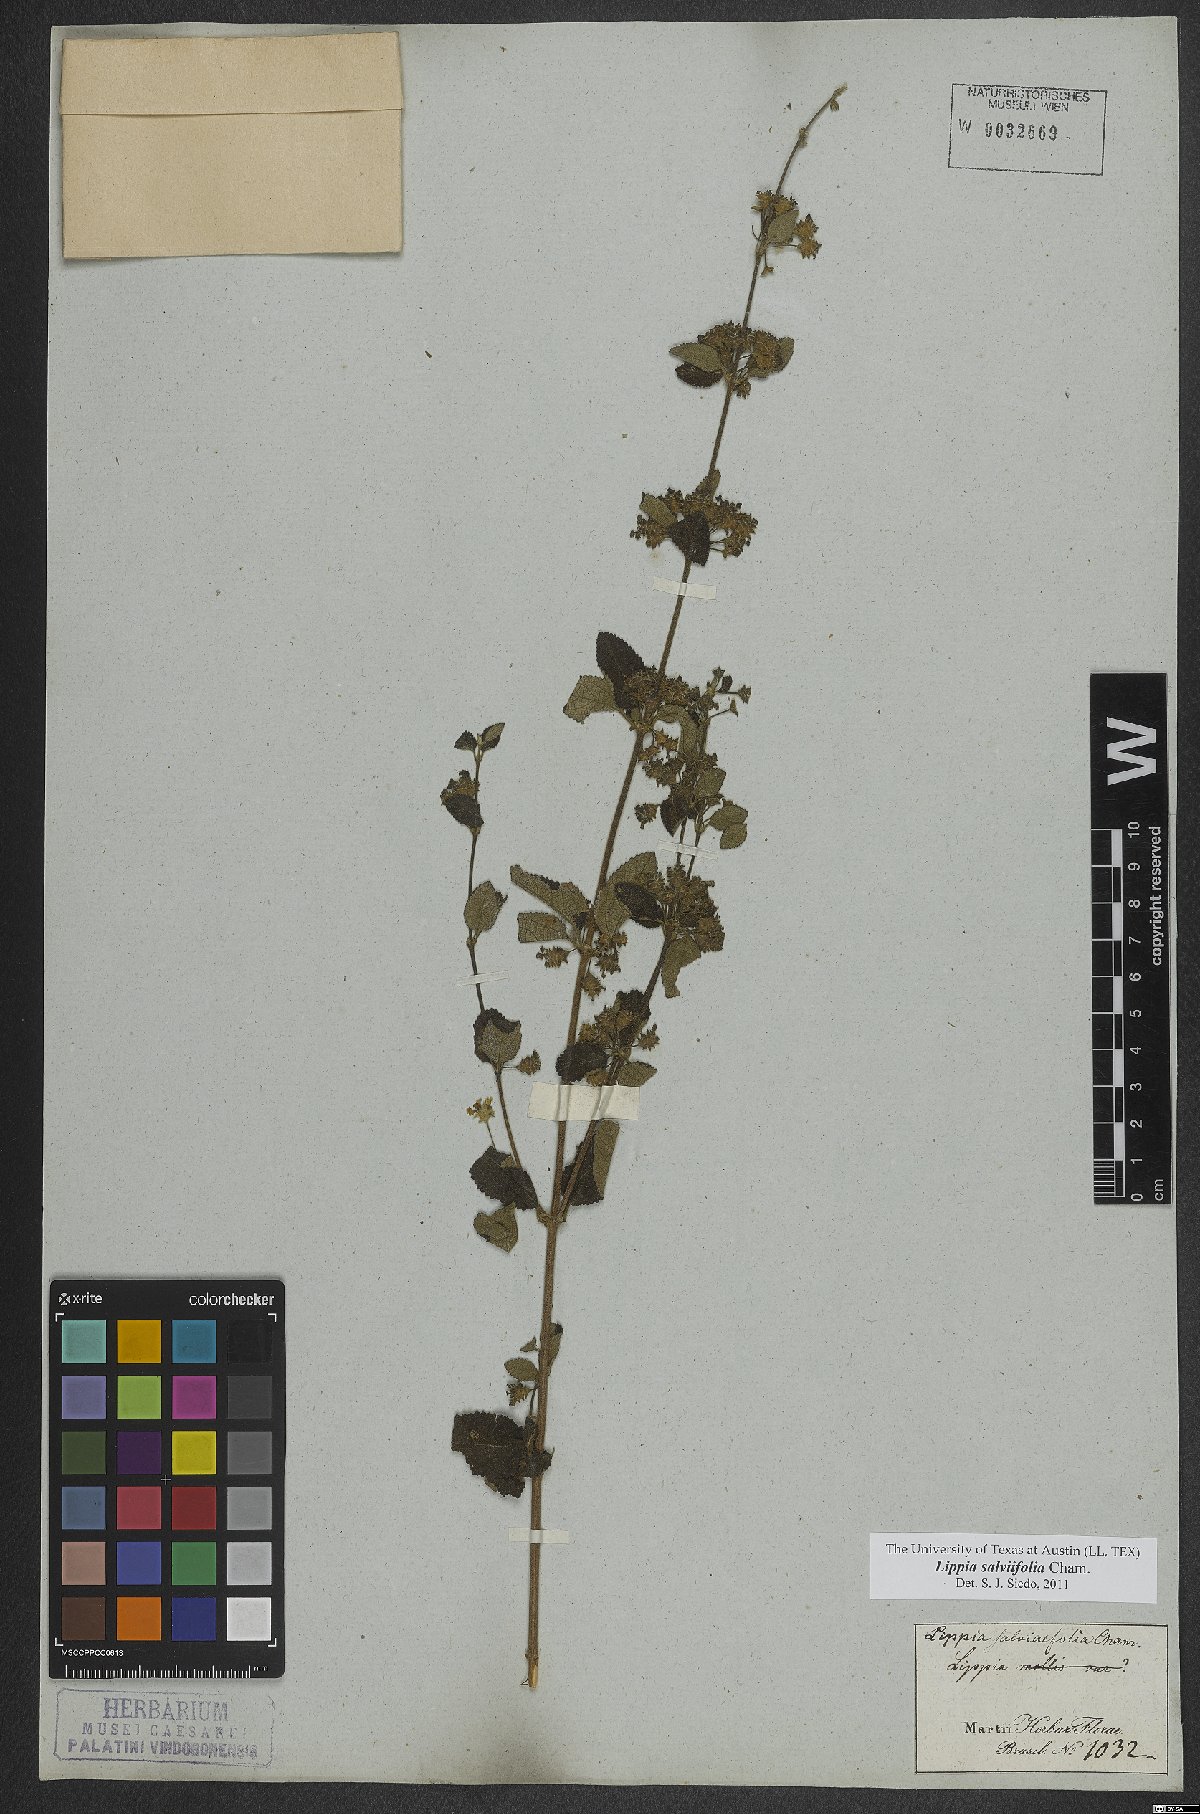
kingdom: Plantae
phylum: Tracheophyta
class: Magnoliopsida
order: Lamiales
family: Verbenaceae
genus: Lippia
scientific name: Lippia origanoides
